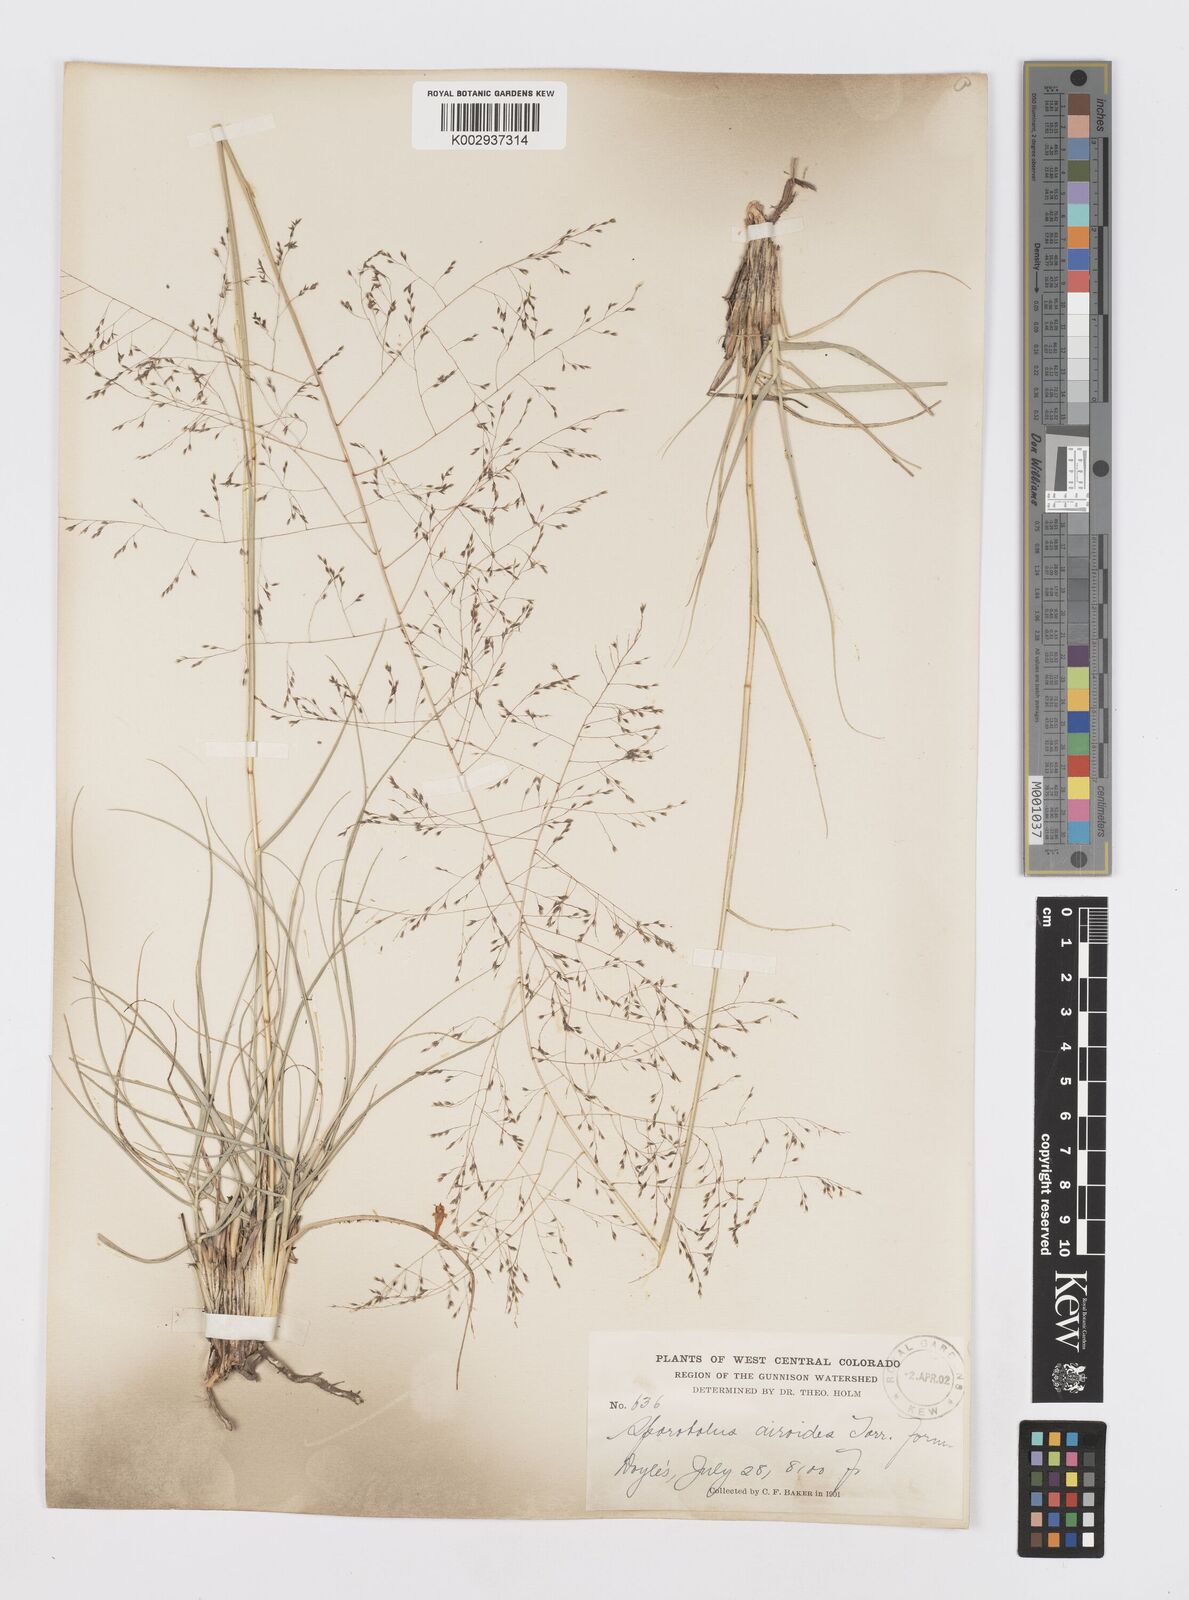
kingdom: Plantae
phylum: Tracheophyta
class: Liliopsida
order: Poales
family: Poaceae
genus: Sporobolus
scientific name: Sporobolus airoides
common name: Alkali sacaton
